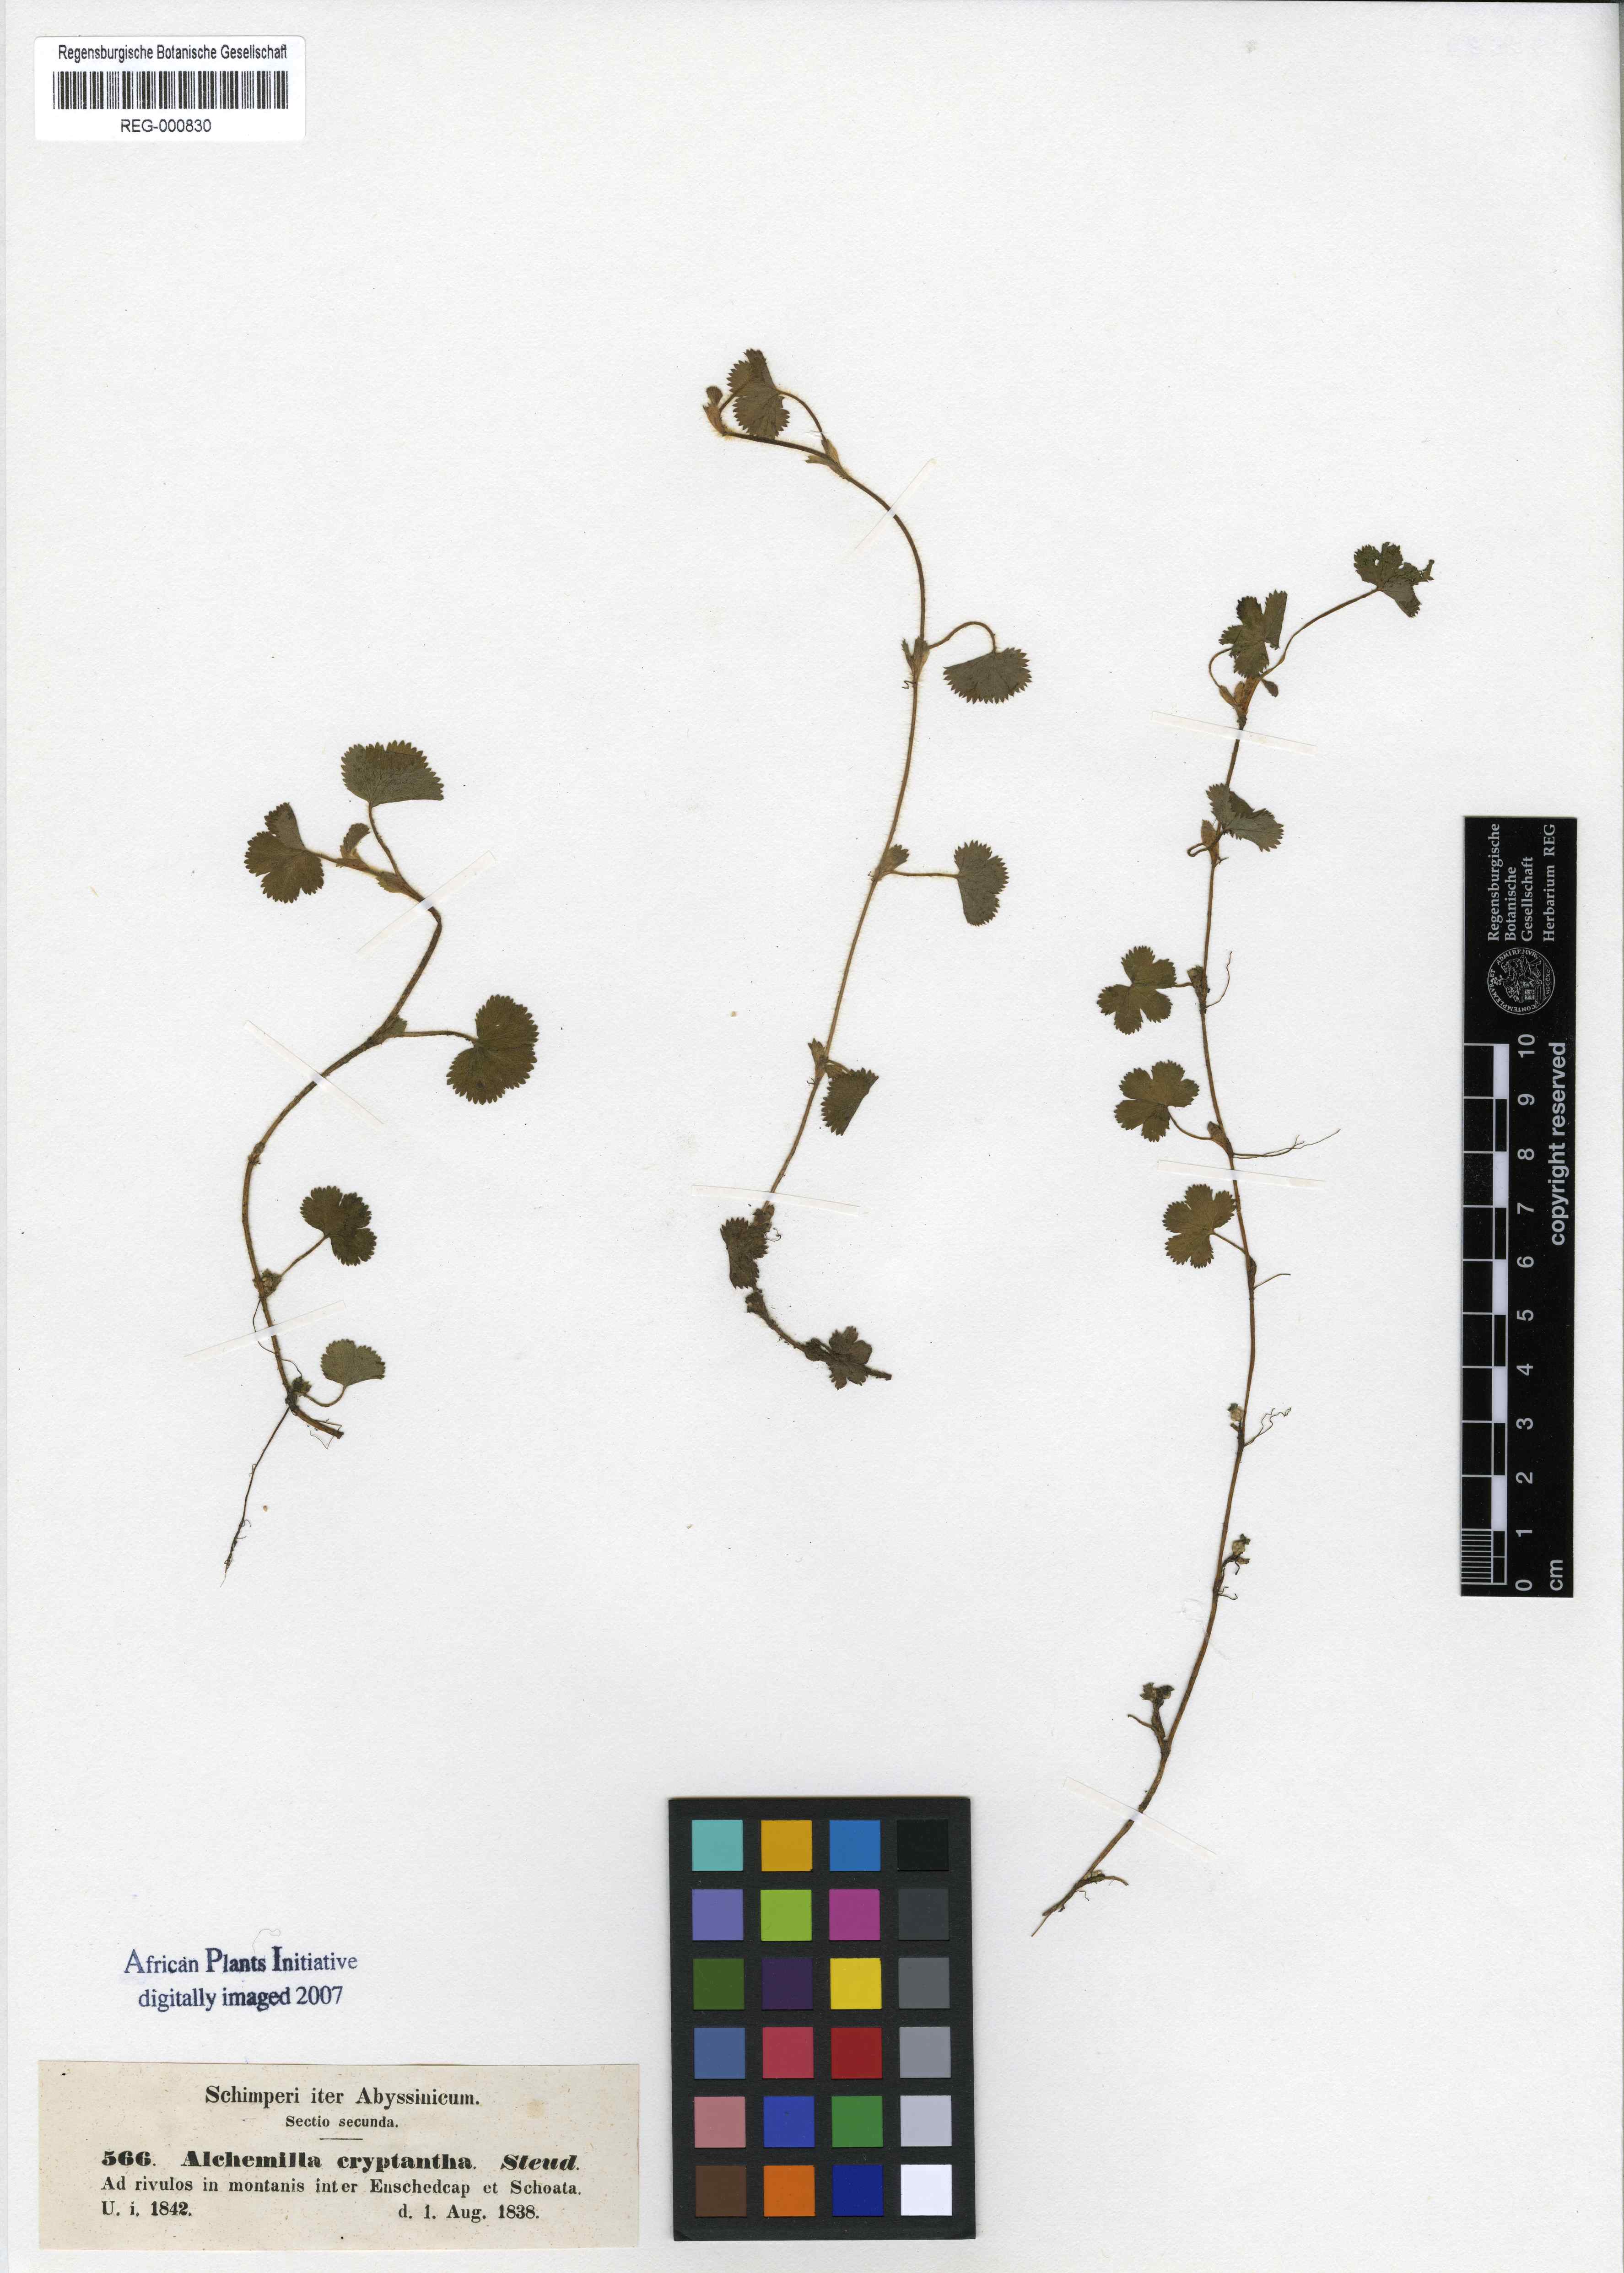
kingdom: Plantae
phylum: Tracheophyta
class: Magnoliopsida
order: Rosales
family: Rosaceae
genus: Alchemilla
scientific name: Alchemilla cryptantha
